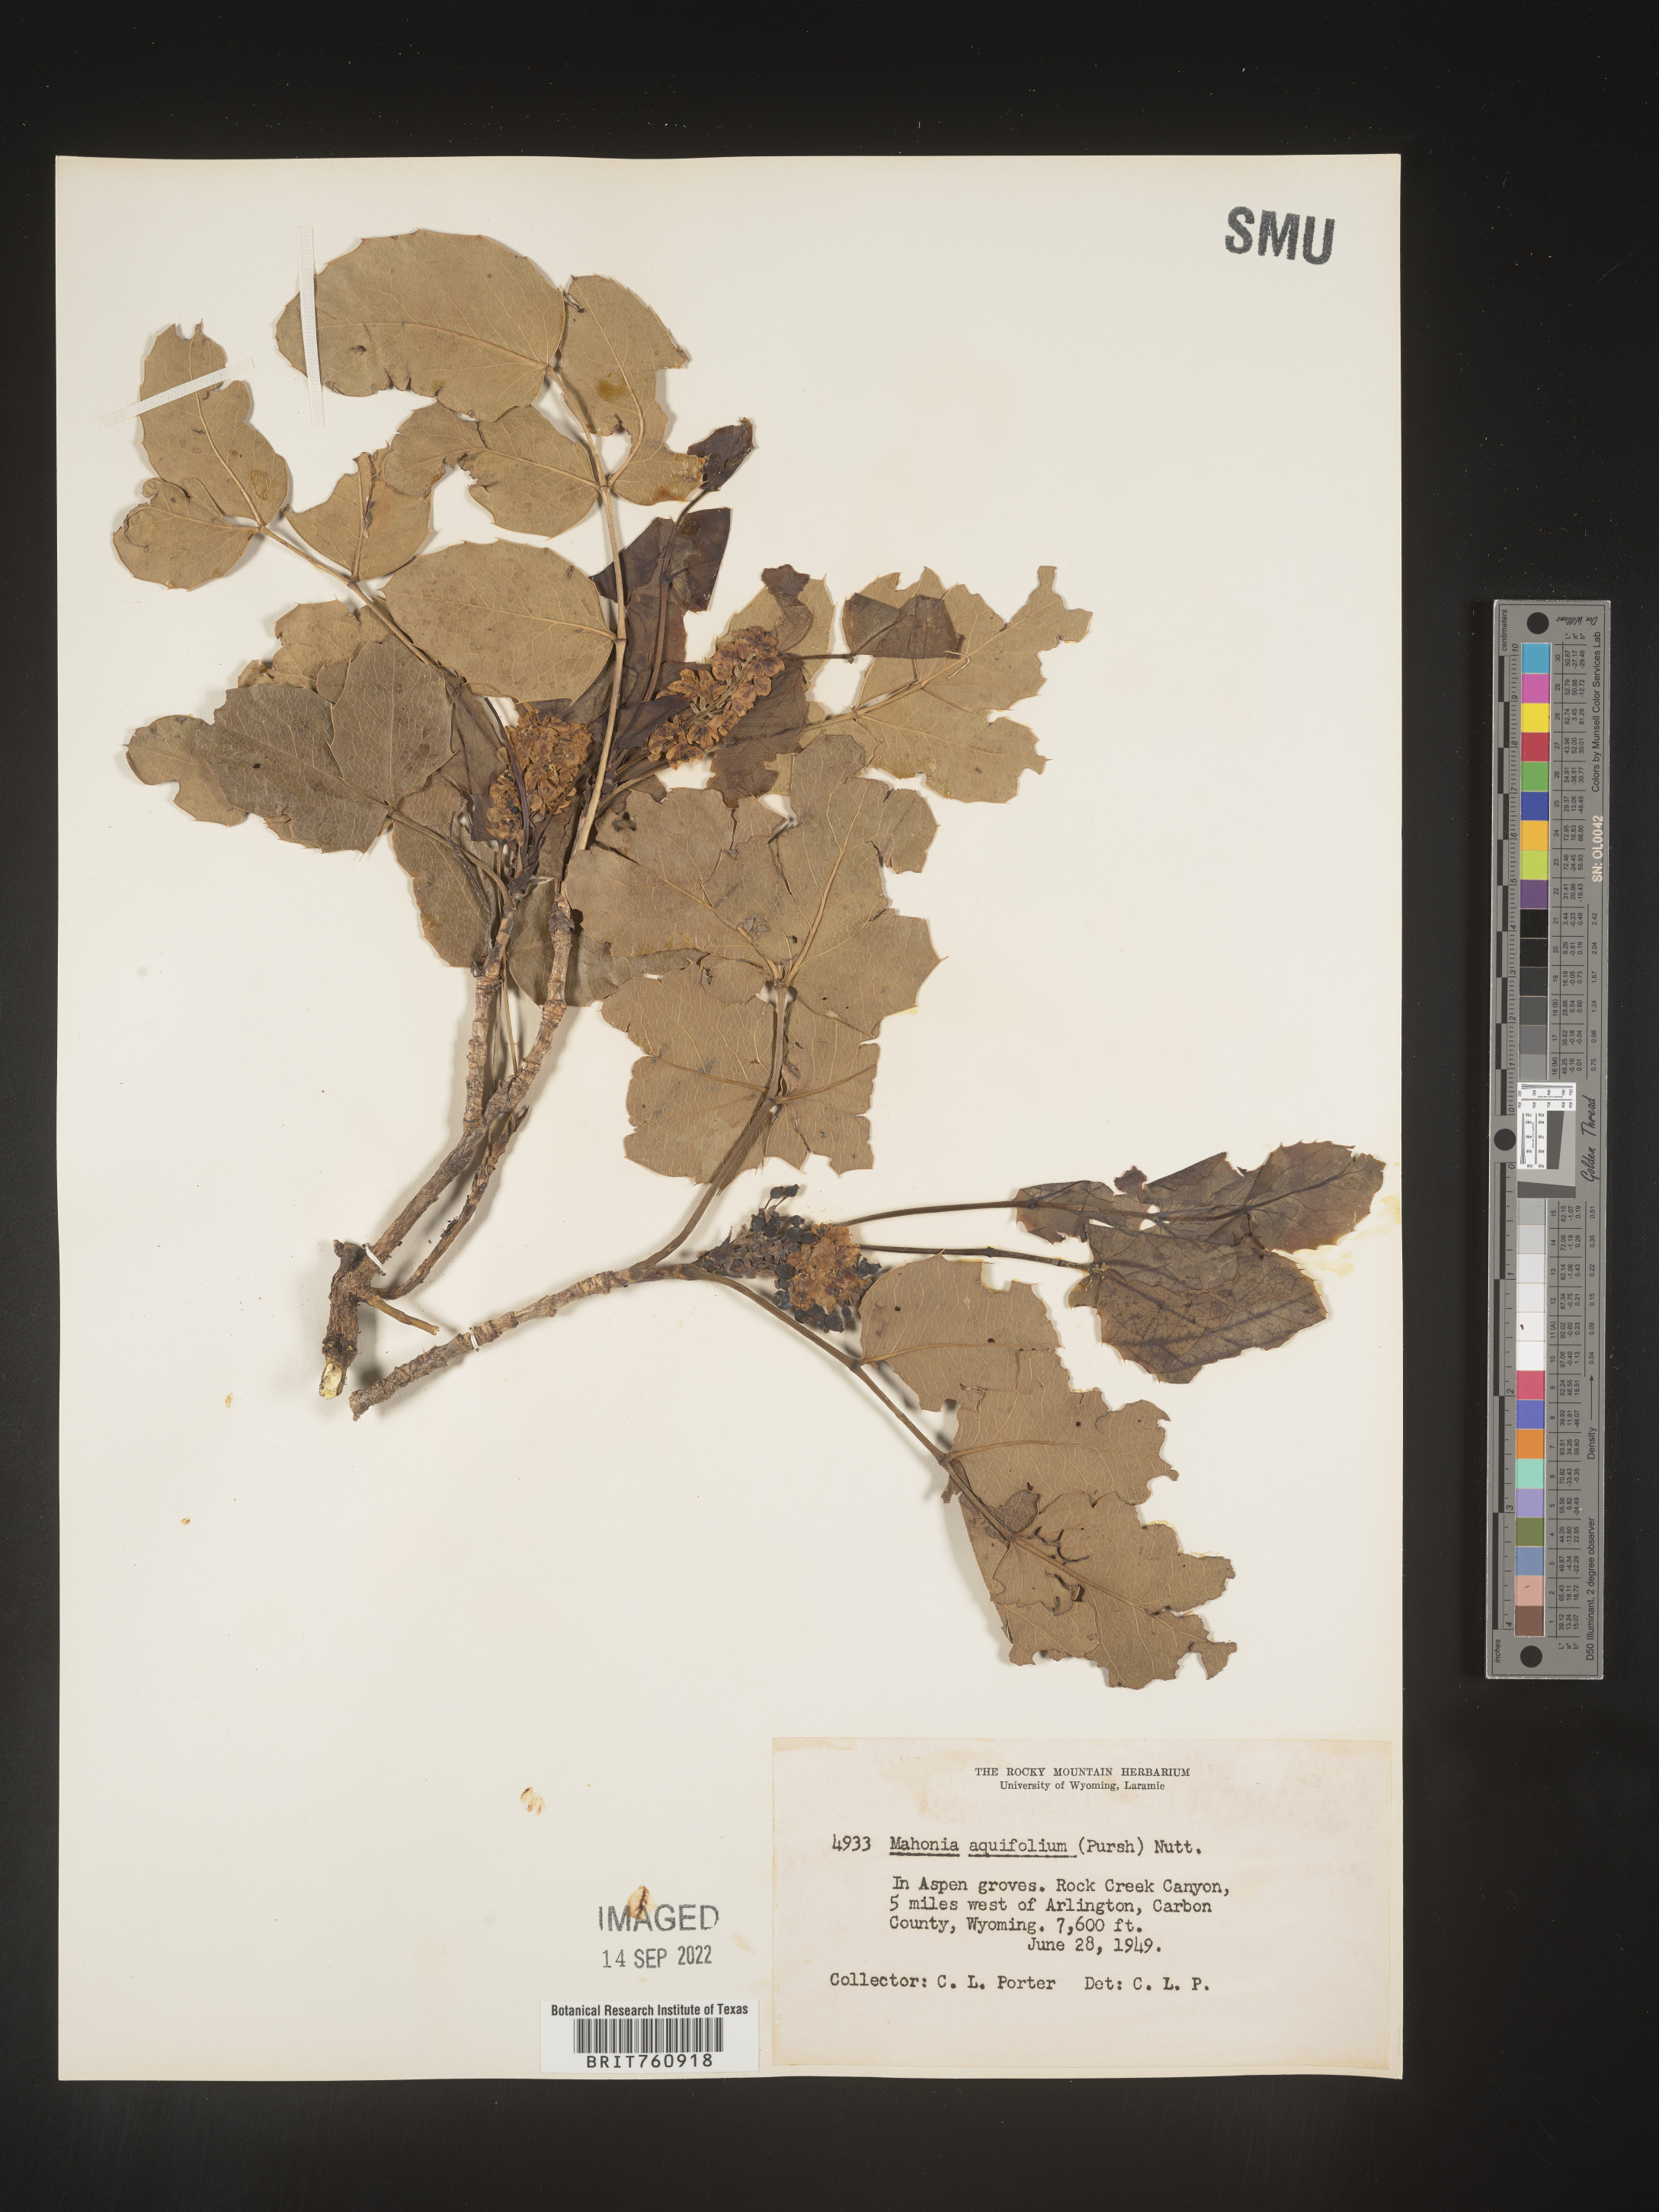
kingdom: Plantae
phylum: Tracheophyta
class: Magnoliopsida
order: Ranunculales
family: Berberidaceae
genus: Mahonia
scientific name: Mahonia aquifolium
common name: Oregon-grape
